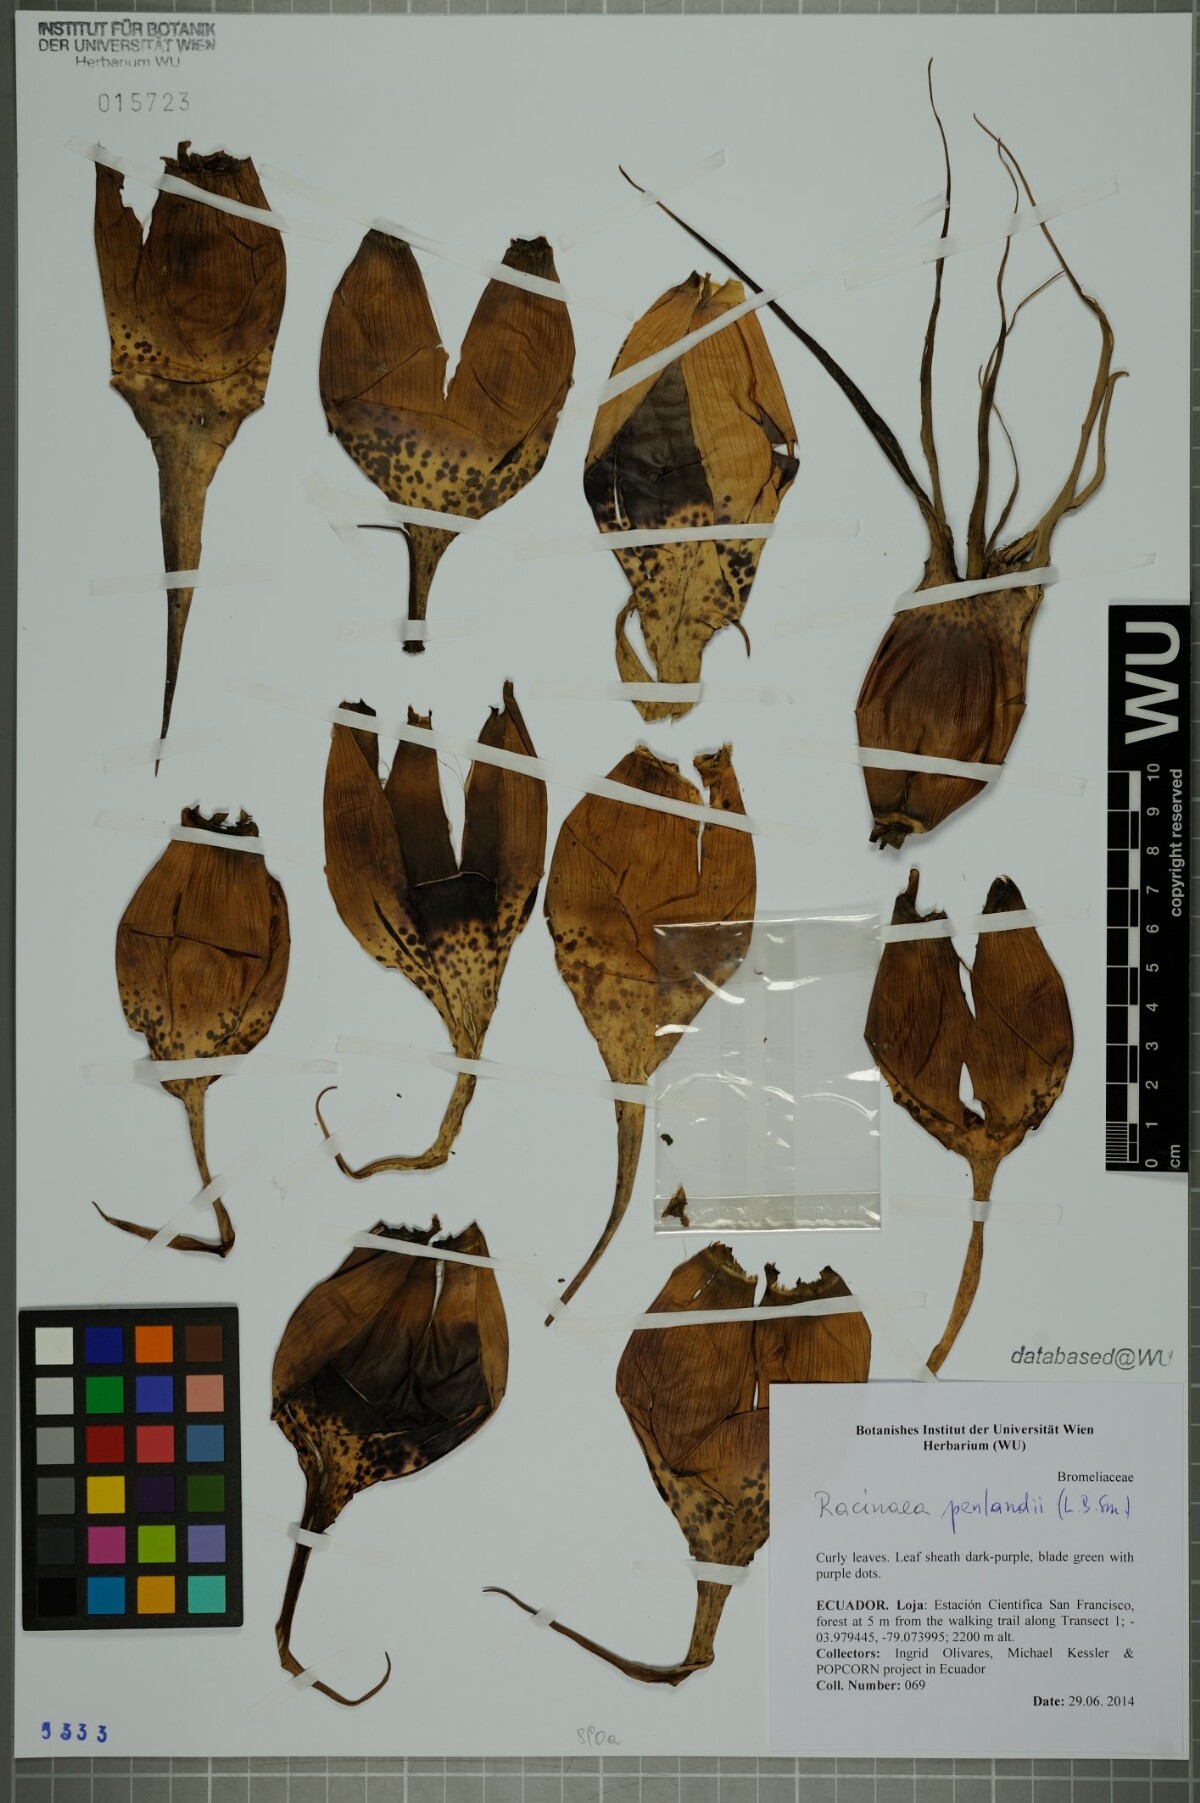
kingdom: Plantae
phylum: Tracheophyta
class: Liliopsida
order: Poales
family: Bromeliaceae
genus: Racinaea
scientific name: Racinaea penlandii
